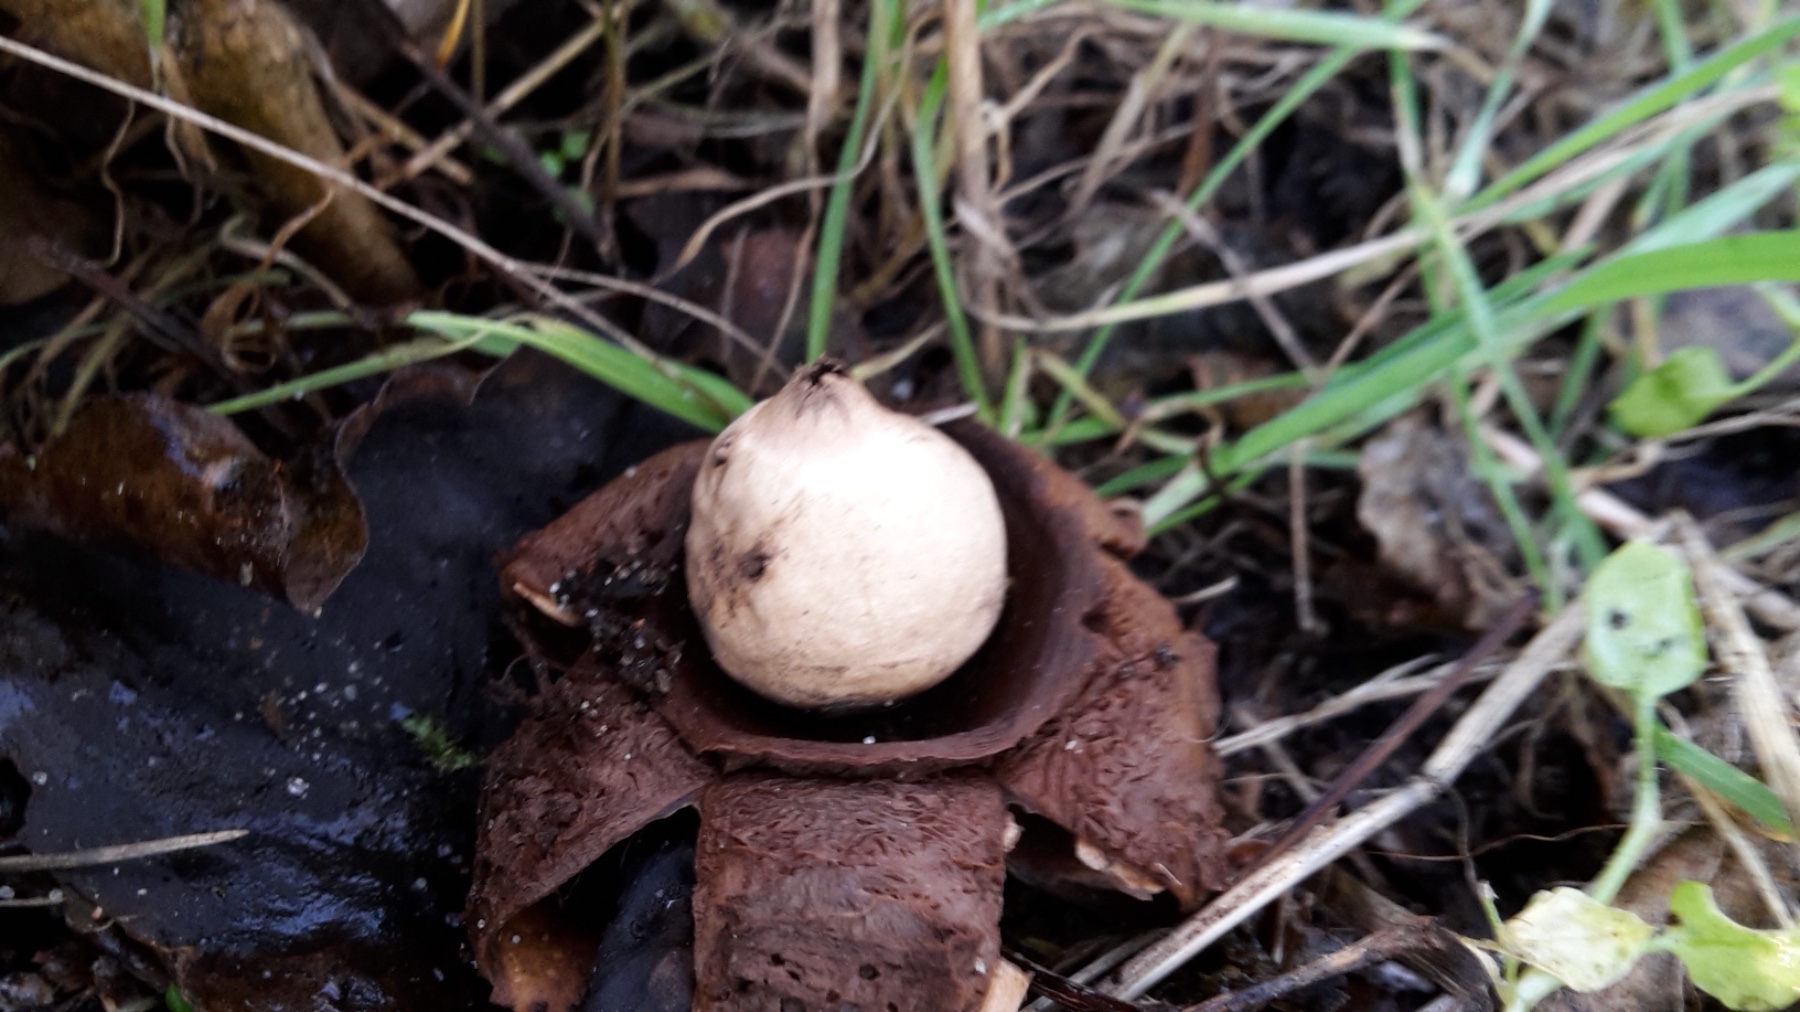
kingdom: Fungi
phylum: Basidiomycota
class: Agaricomycetes
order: Geastrales
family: Geastraceae
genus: Geastrum
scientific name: Geastrum michelianum
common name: kødet stjernebold
